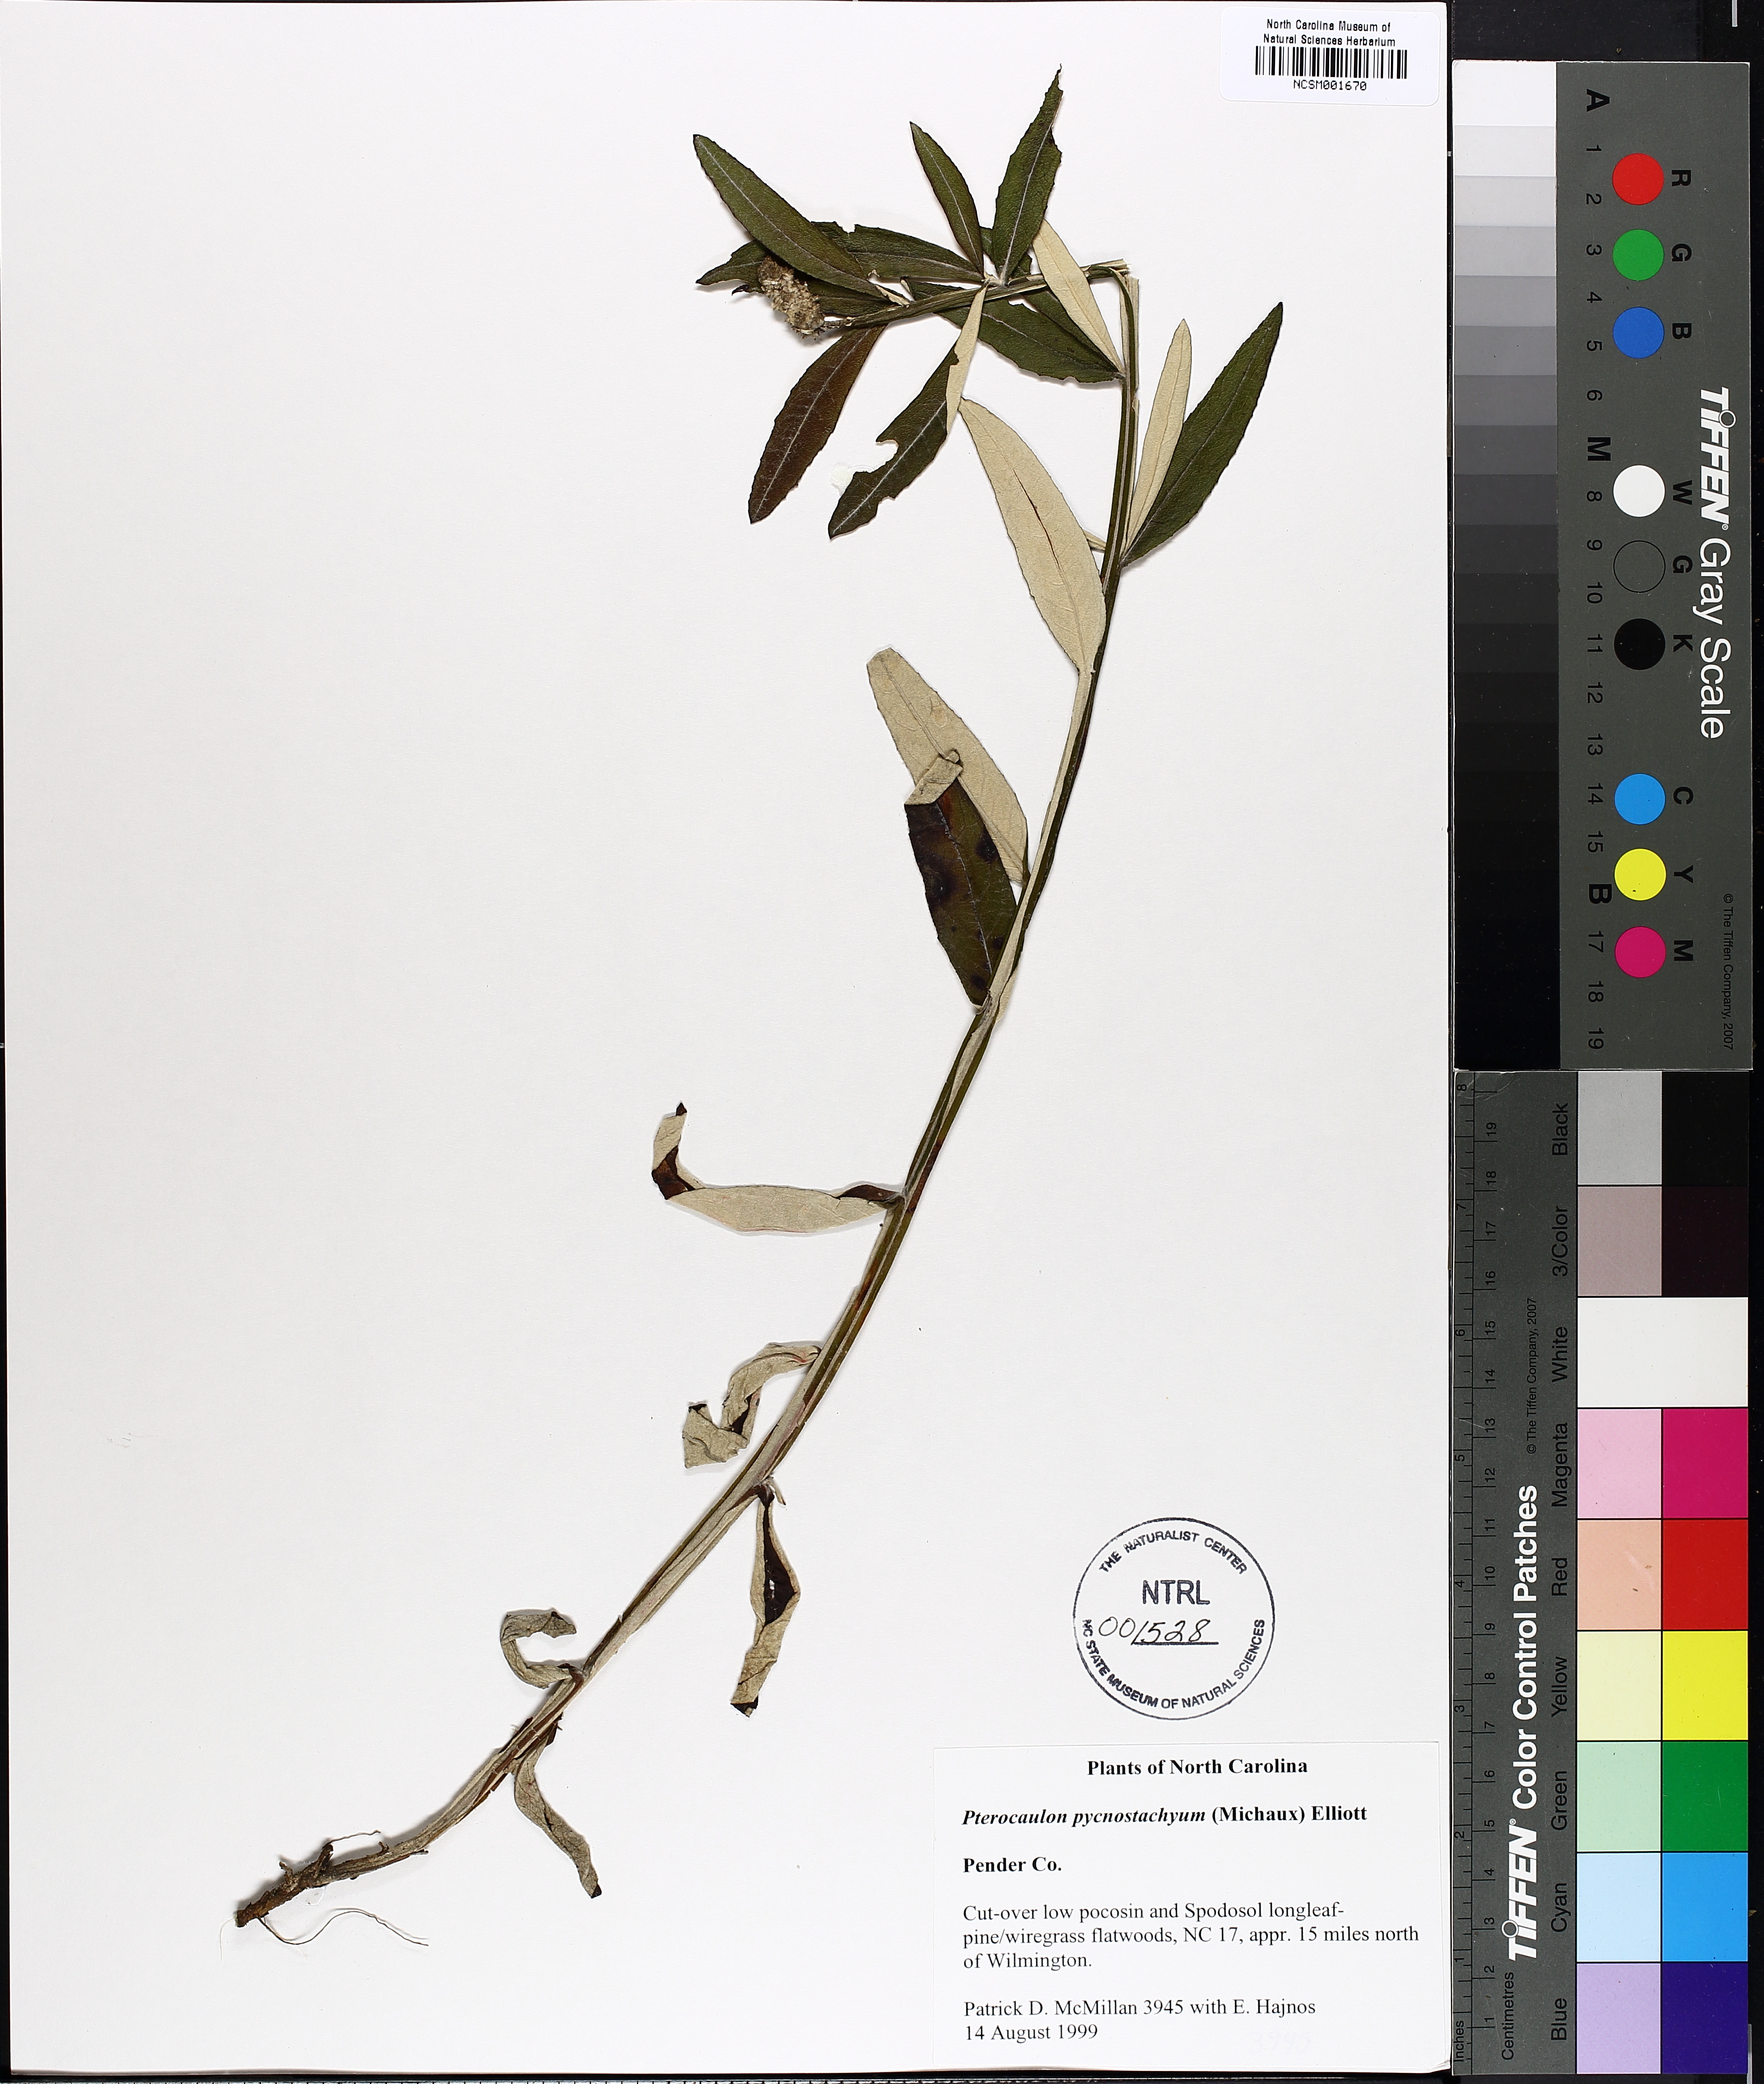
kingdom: Plantae
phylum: Tracheophyta
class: Magnoliopsida
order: Asterales
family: Asteraceae
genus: Pterocaulon
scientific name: Pterocaulon virgatum
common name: Wand blackroot
